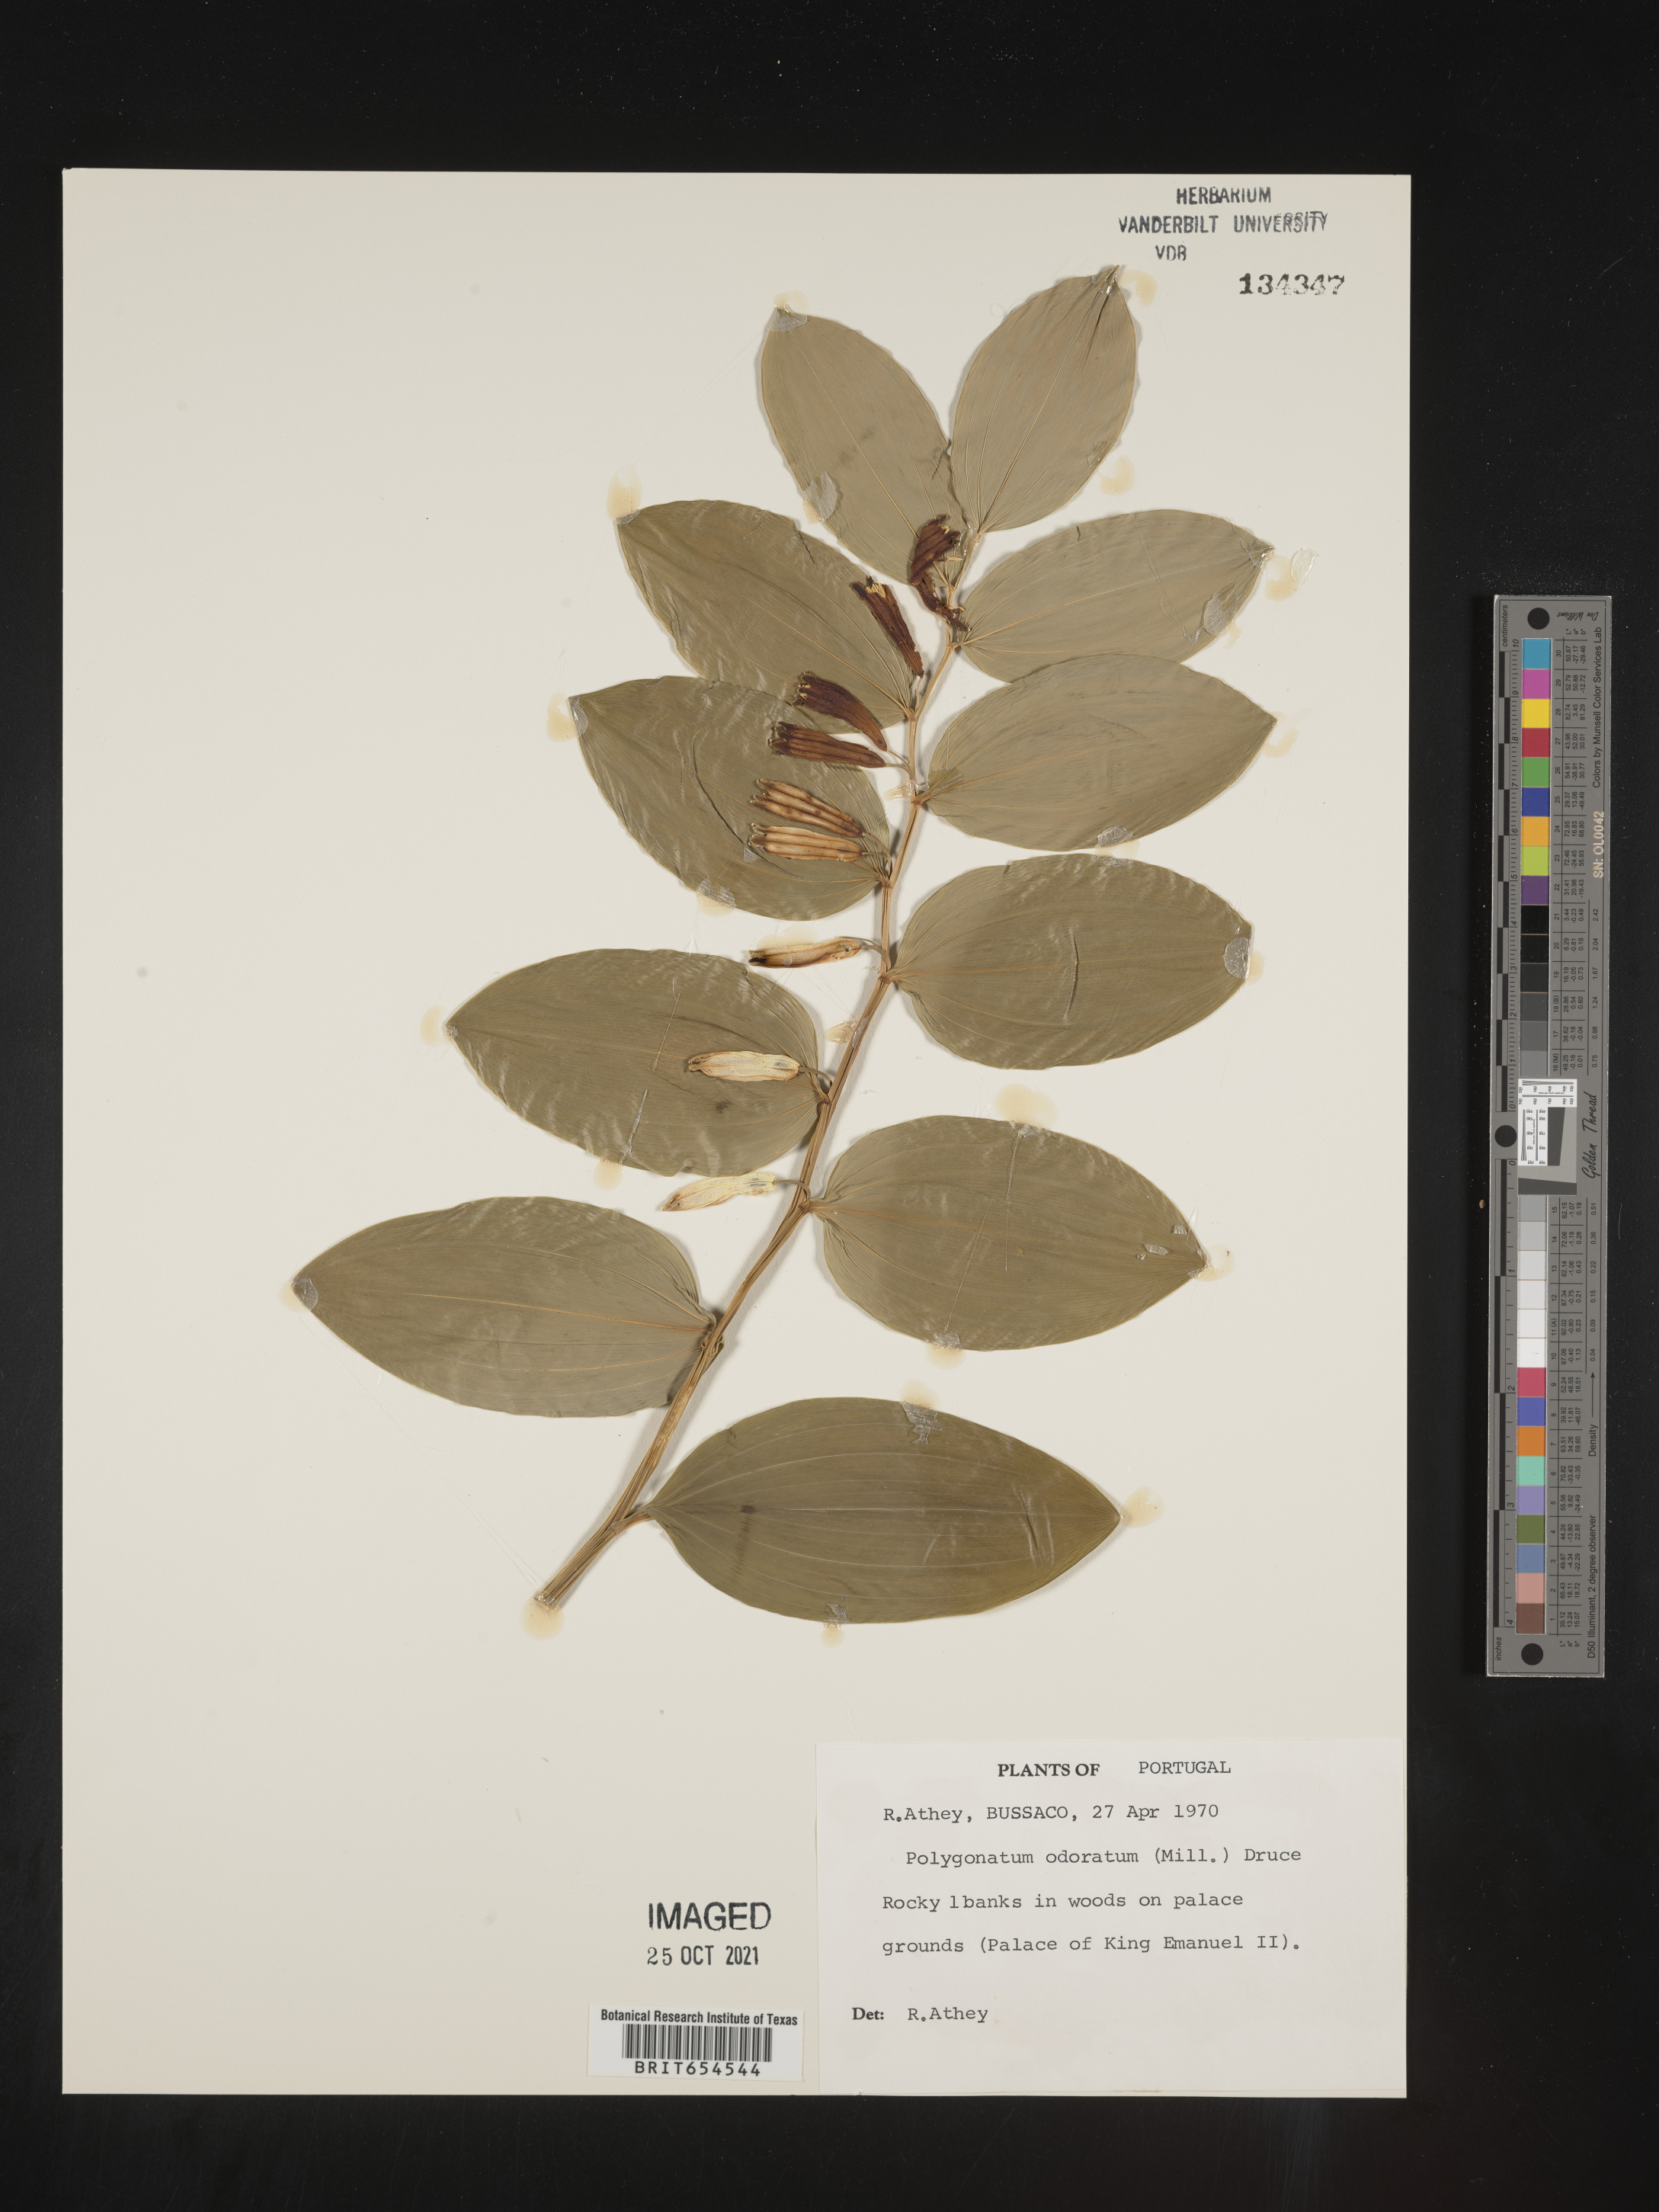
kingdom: Plantae
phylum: Tracheophyta
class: Liliopsida
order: Asparagales
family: Asparagaceae
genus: Polygonatum
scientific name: Polygonatum odoratum
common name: Angular solomon's-seal
